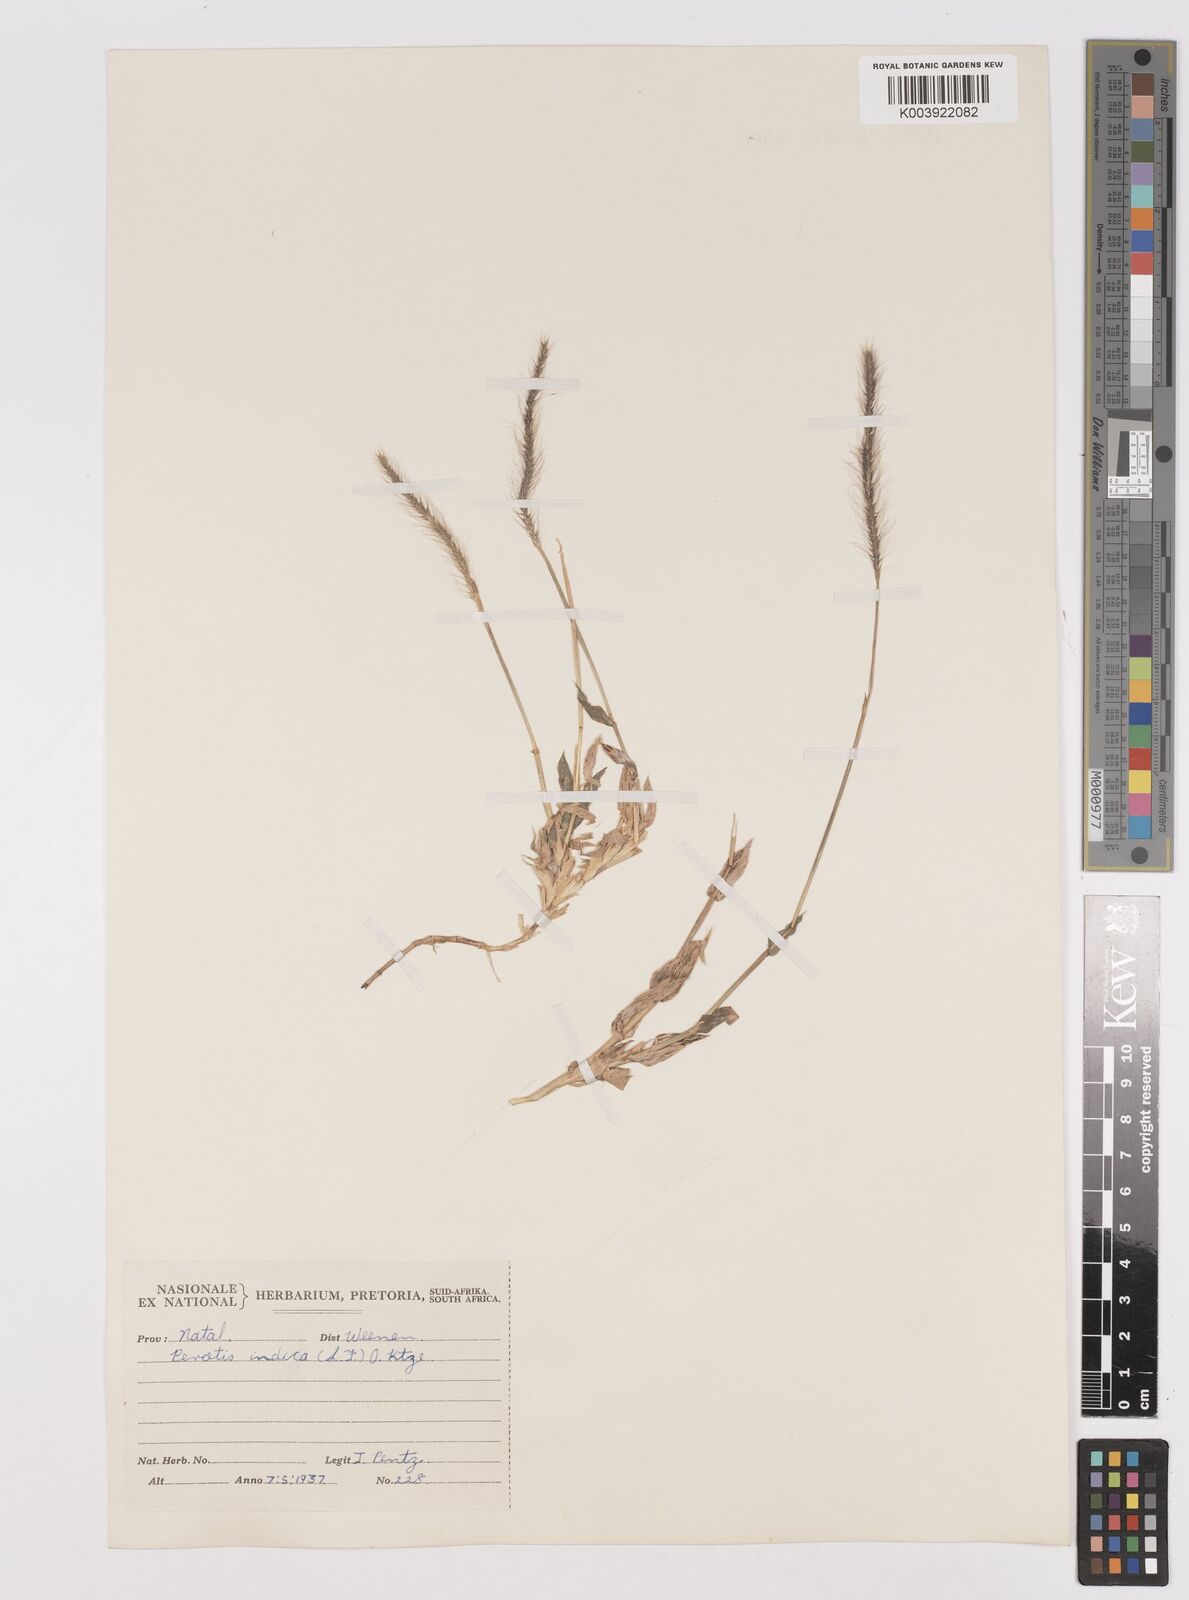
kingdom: Plantae
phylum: Tracheophyta
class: Liliopsida
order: Poales
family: Poaceae
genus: Perotis
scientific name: Perotis patens
